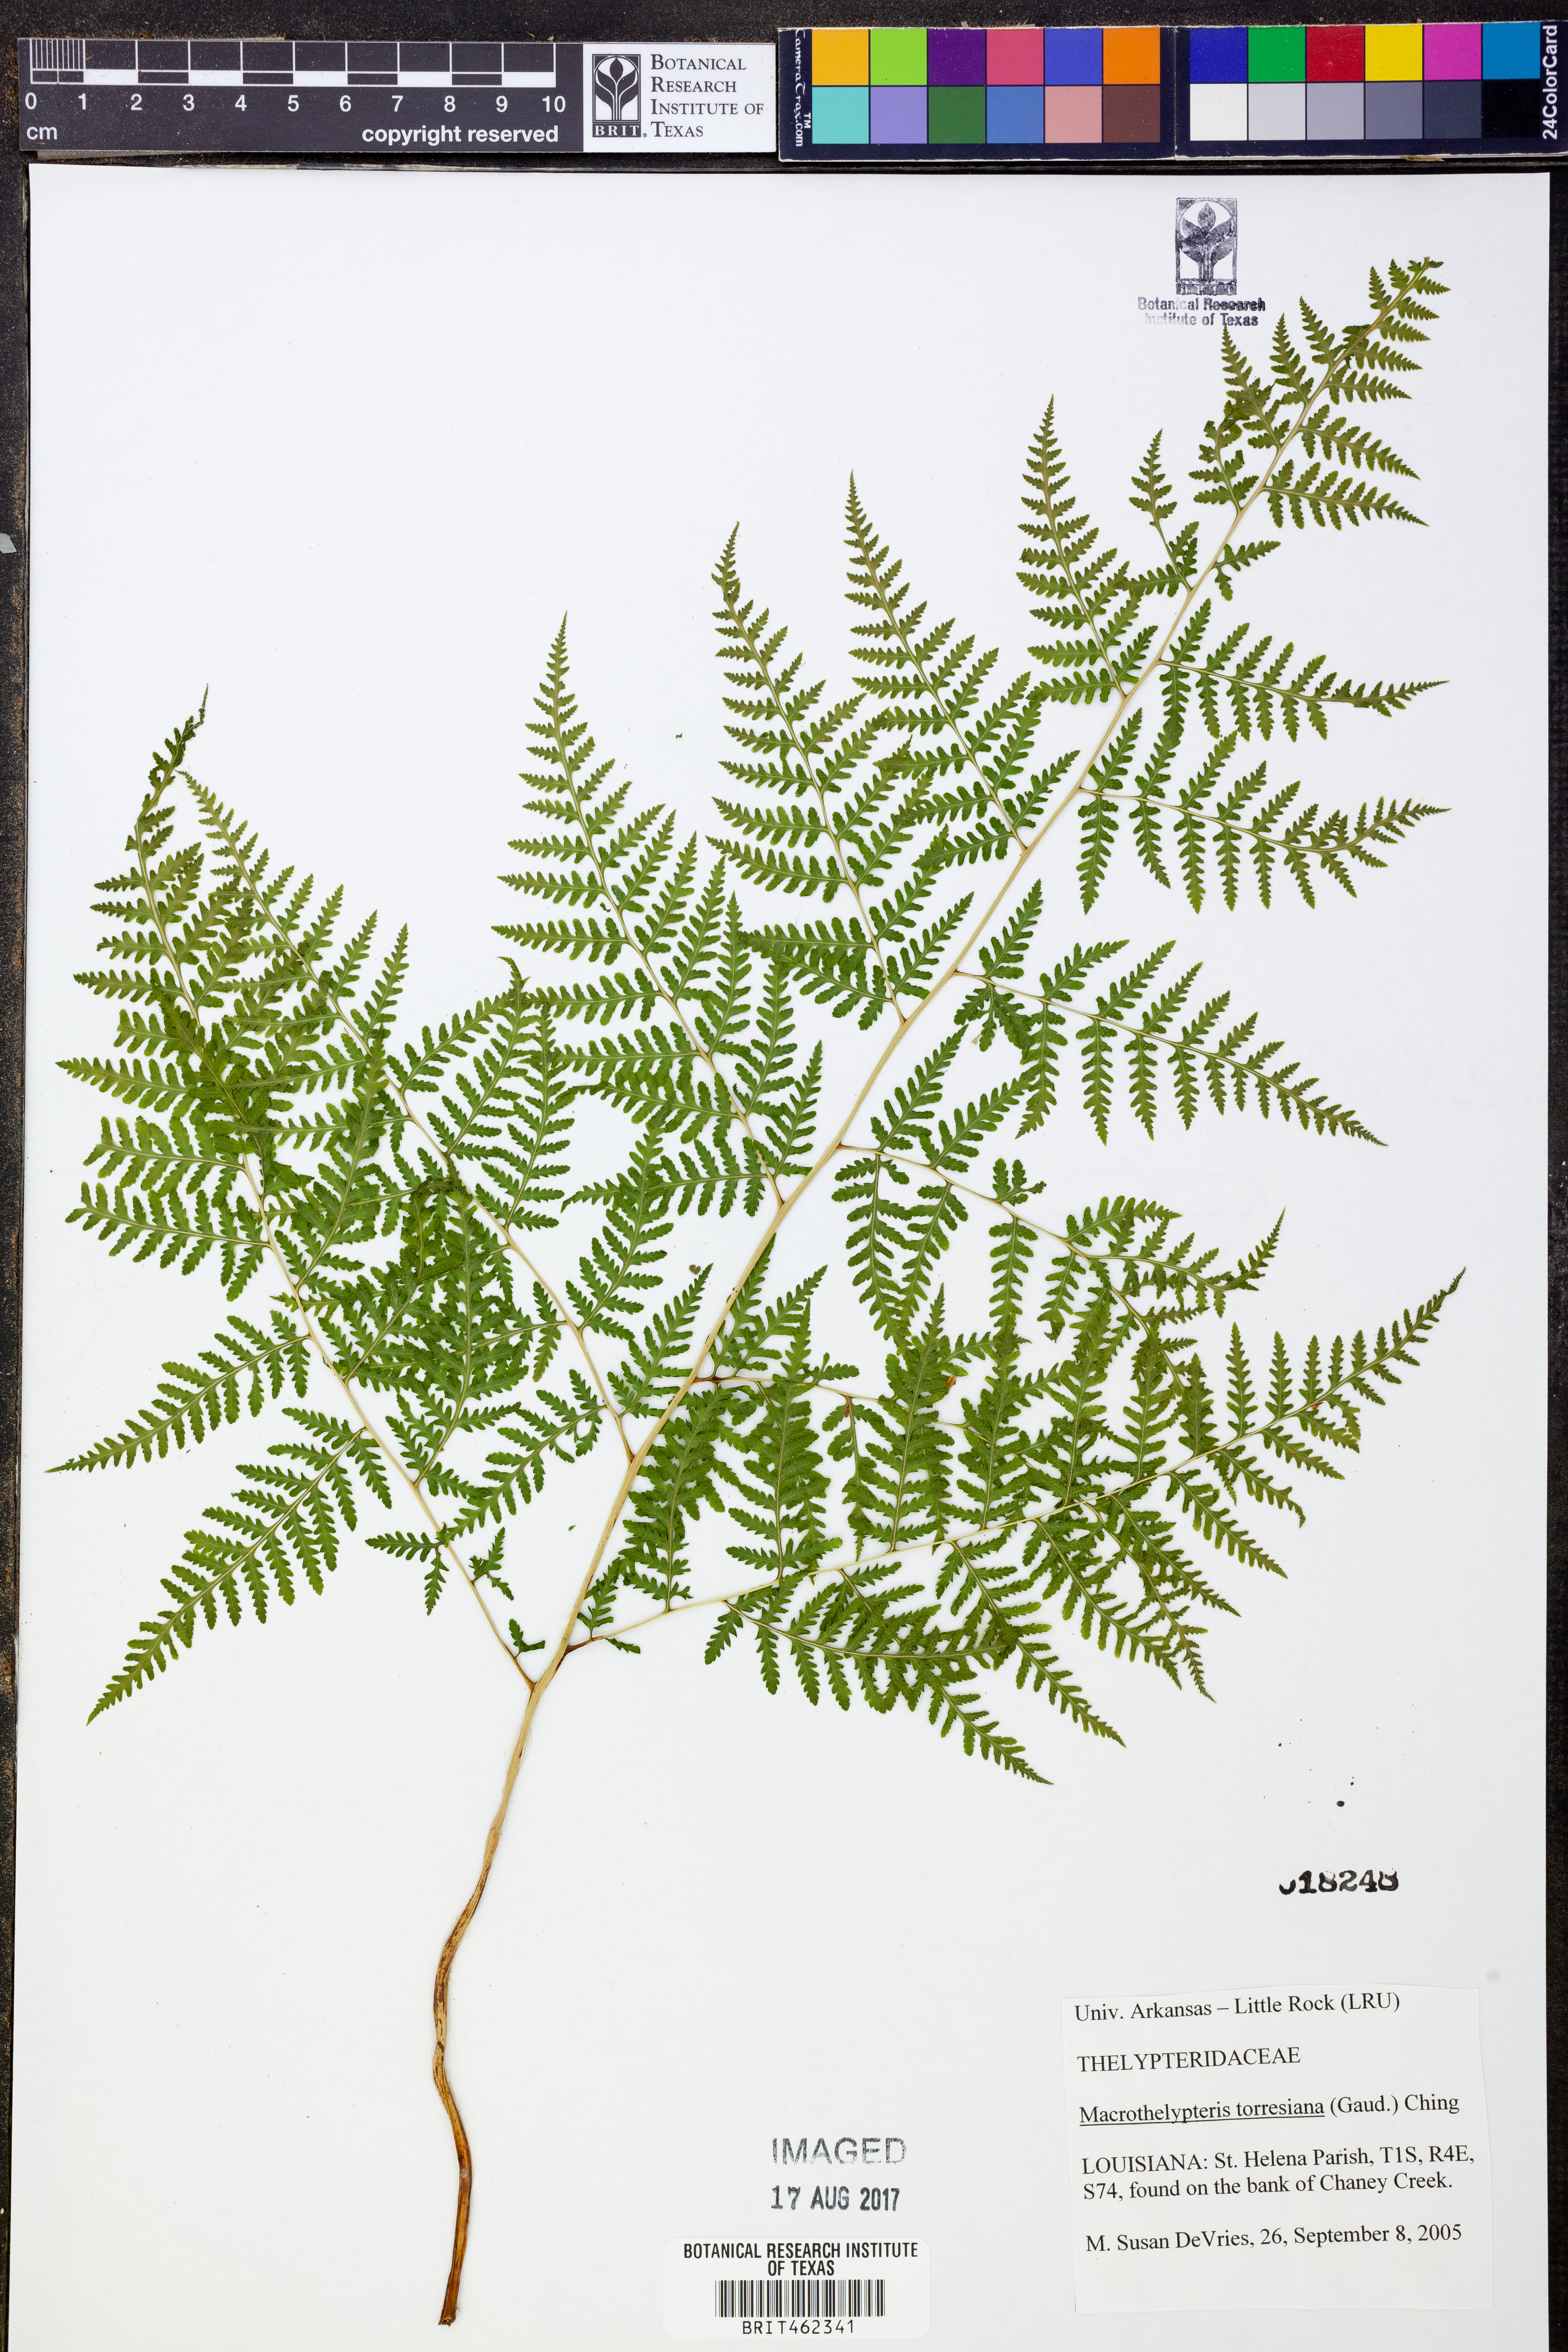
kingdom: Plantae
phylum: Tracheophyta
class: Polypodiopsida
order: Polypodiales
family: Thelypteridaceae
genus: Macrothelypteris
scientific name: Macrothelypteris torresiana
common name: Swordfern
